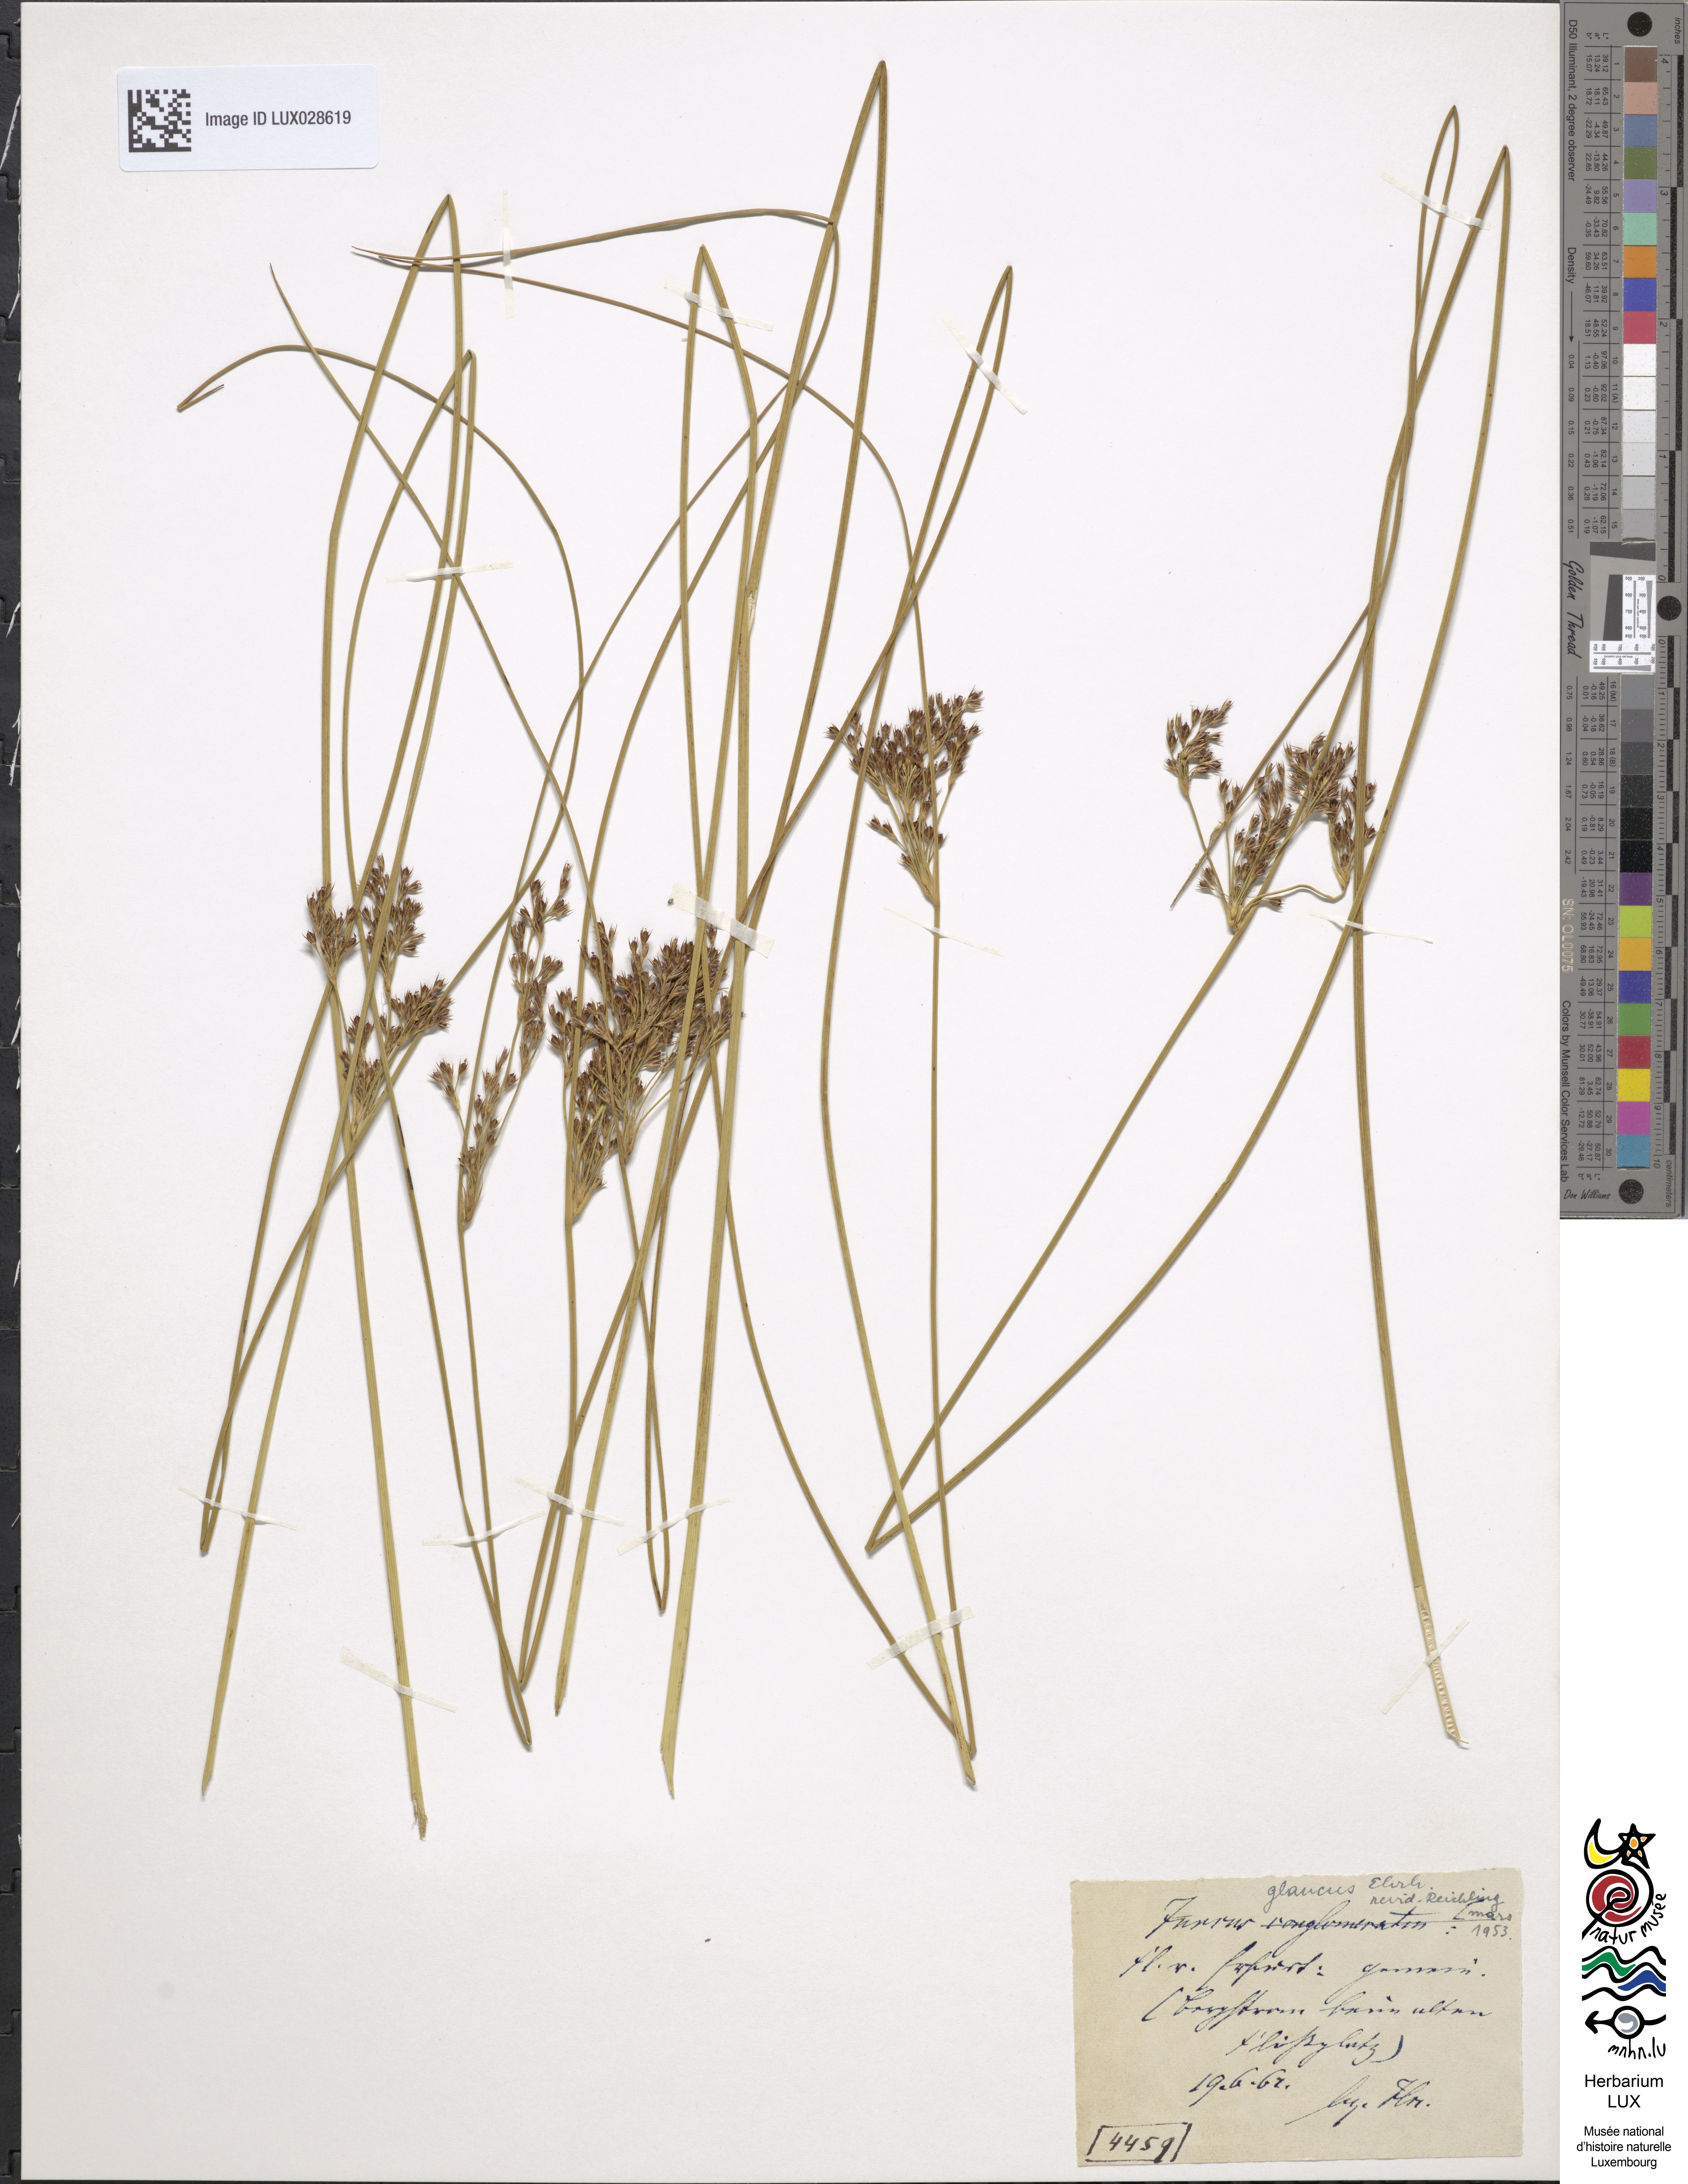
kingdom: Plantae
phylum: Tracheophyta
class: Liliopsida
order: Poales
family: Juncaceae
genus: Juncus
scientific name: Juncus inflexus
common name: Hard rush
